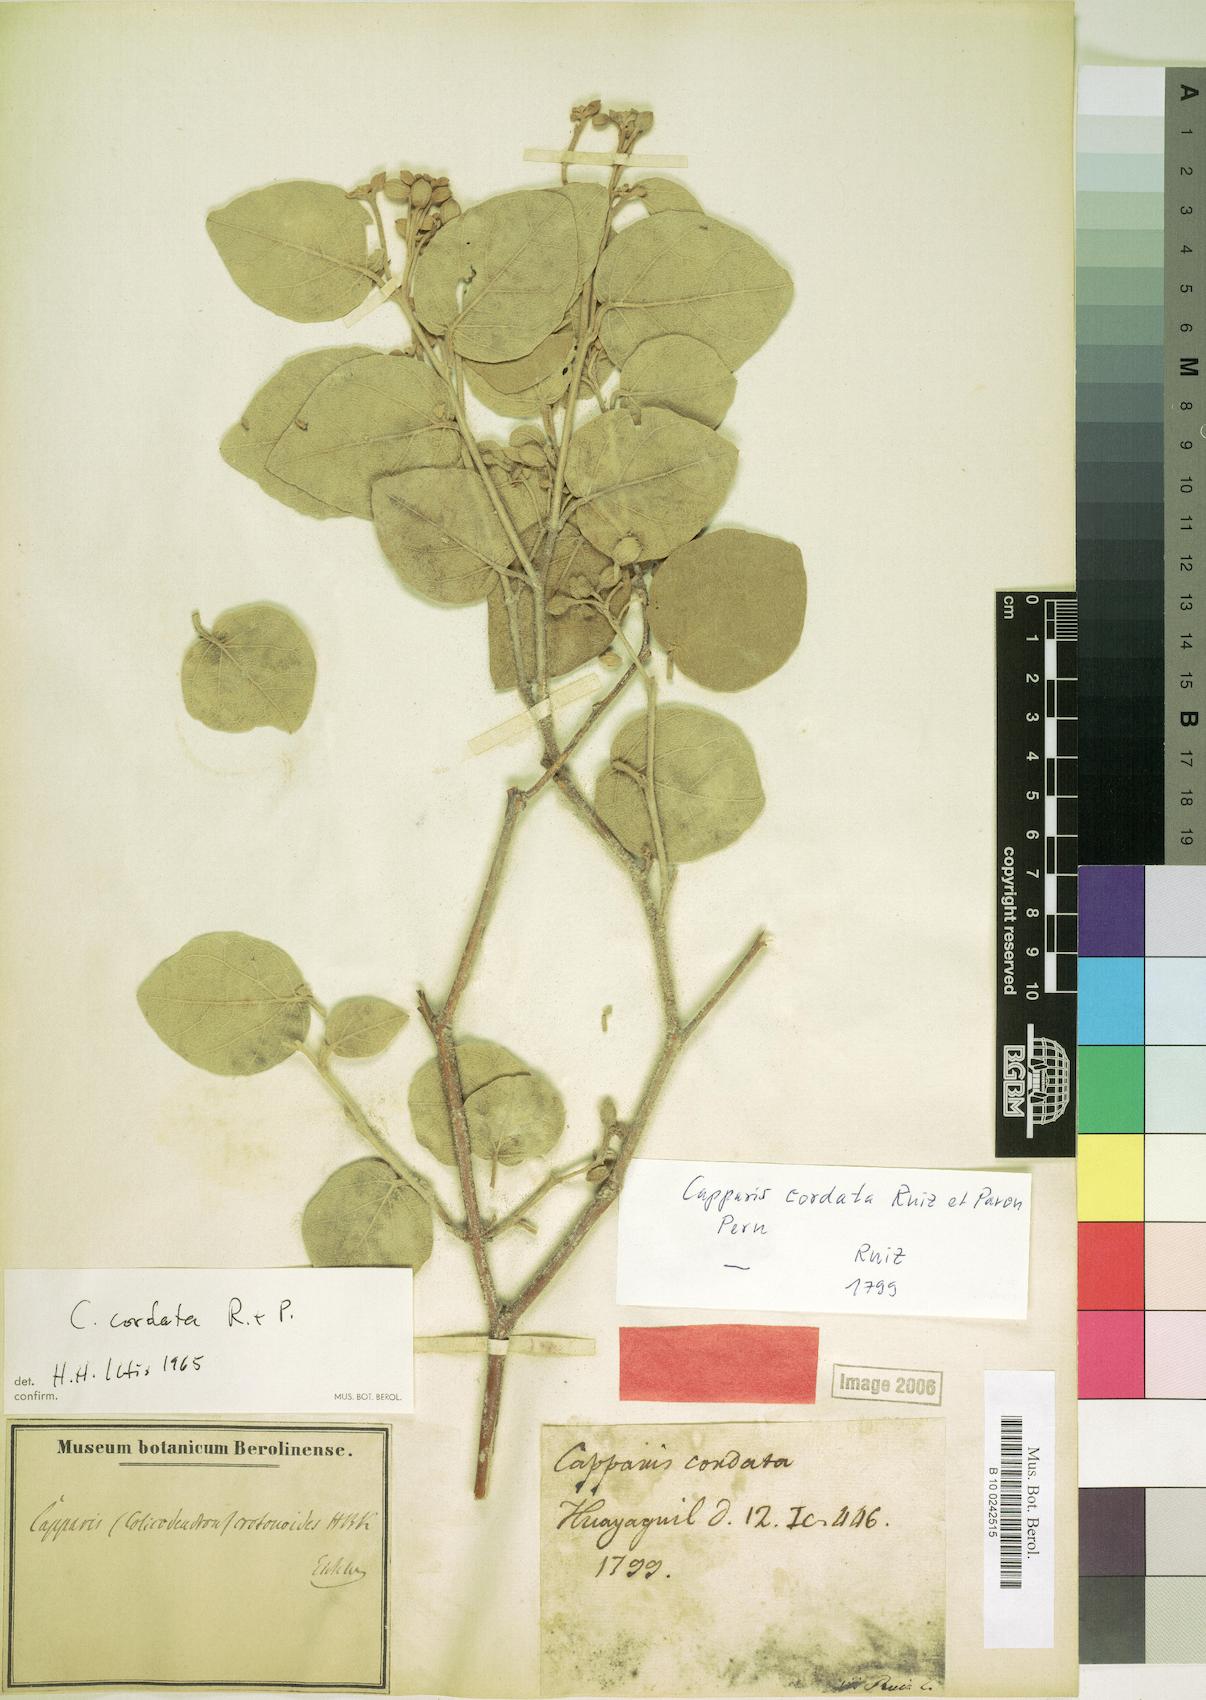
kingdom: Plantae
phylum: Tracheophyta
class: Magnoliopsida
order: Brassicales
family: Capparaceae
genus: Capparicordis
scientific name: Capparicordis crotonoides
